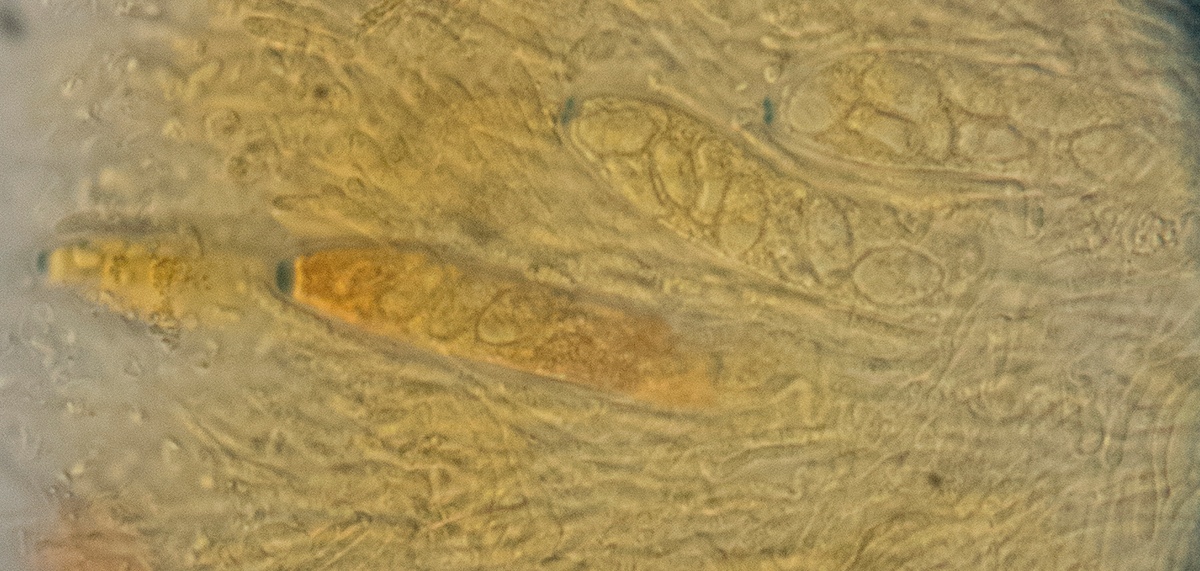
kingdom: Fungi
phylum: Ascomycota
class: Leotiomycetes
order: Helotiales
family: Gelatinodiscaceae
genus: Ascocoryne
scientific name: Ascocoryne lilacina
